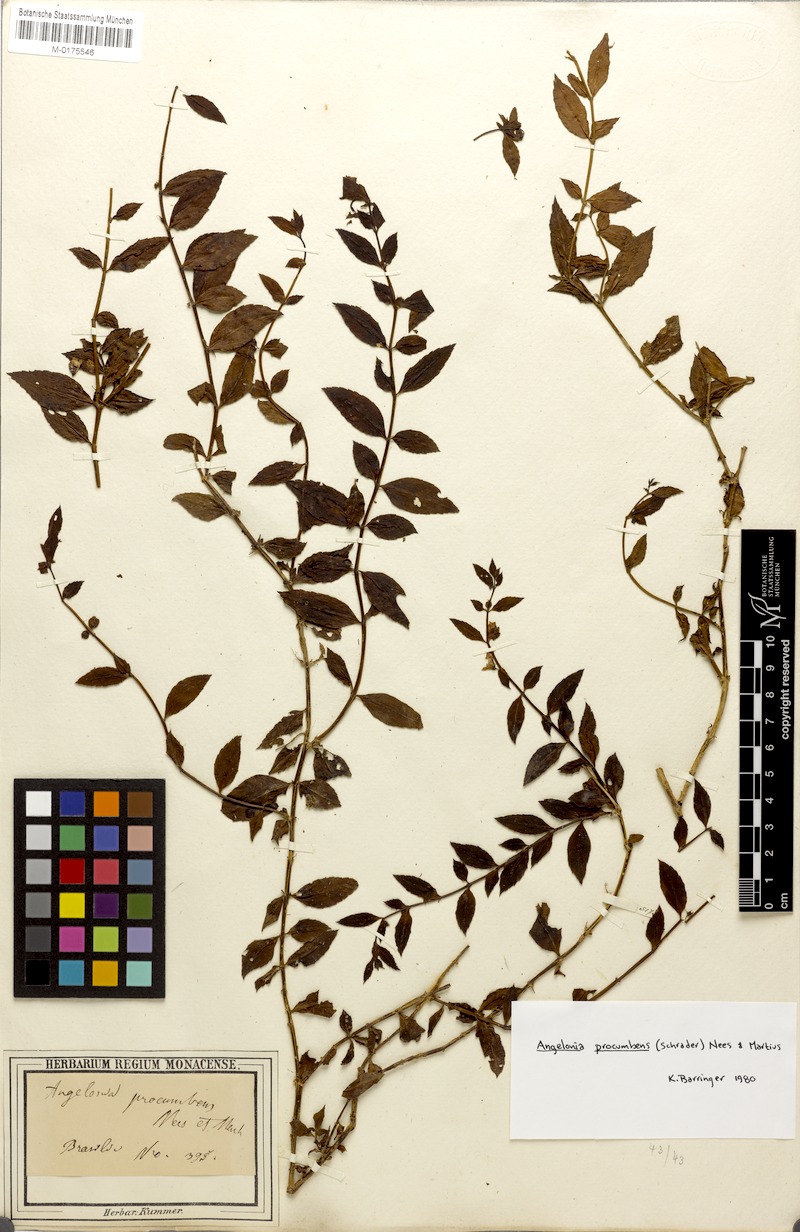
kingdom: Plantae
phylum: Tracheophyta
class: Magnoliopsida
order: Lamiales
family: Plantaginaceae
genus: Angelonia
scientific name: Angelonia procumbens
